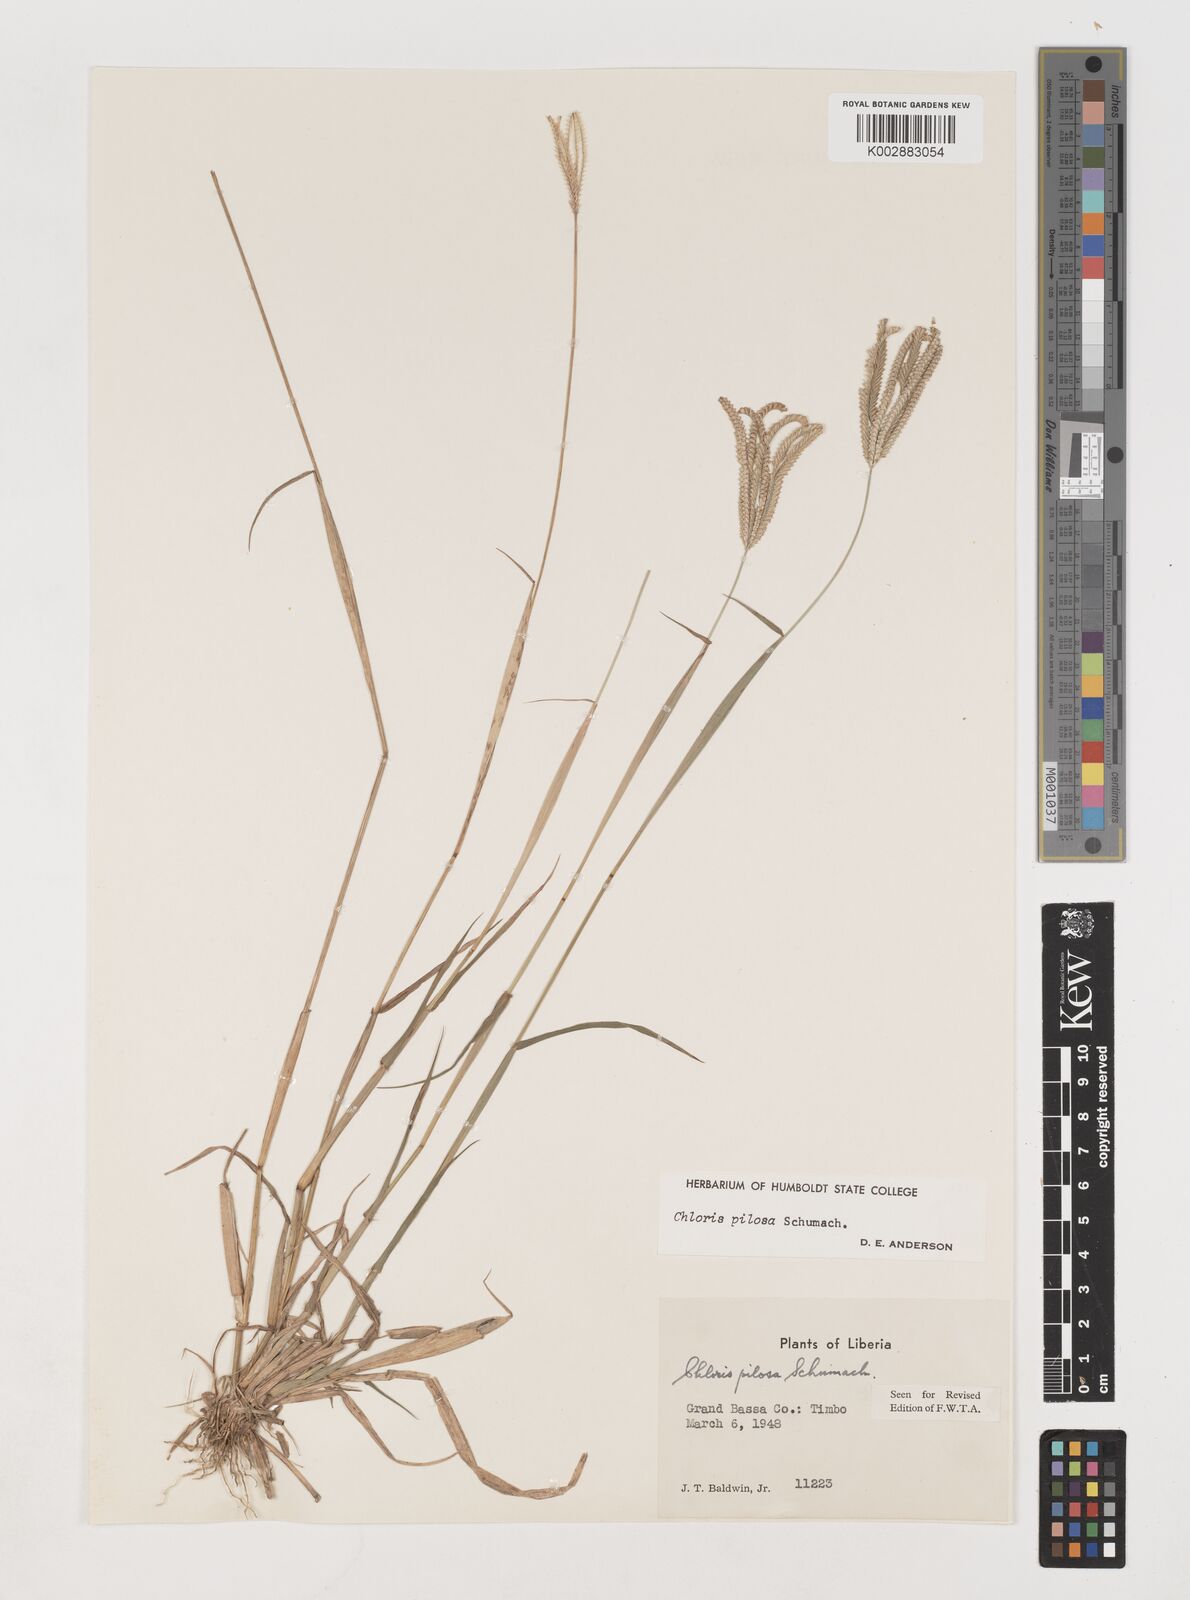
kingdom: Plantae
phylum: Tracheophyta
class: Liliopsida
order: Poales
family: Poaceae
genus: Chloris
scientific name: Chloris pilosa
